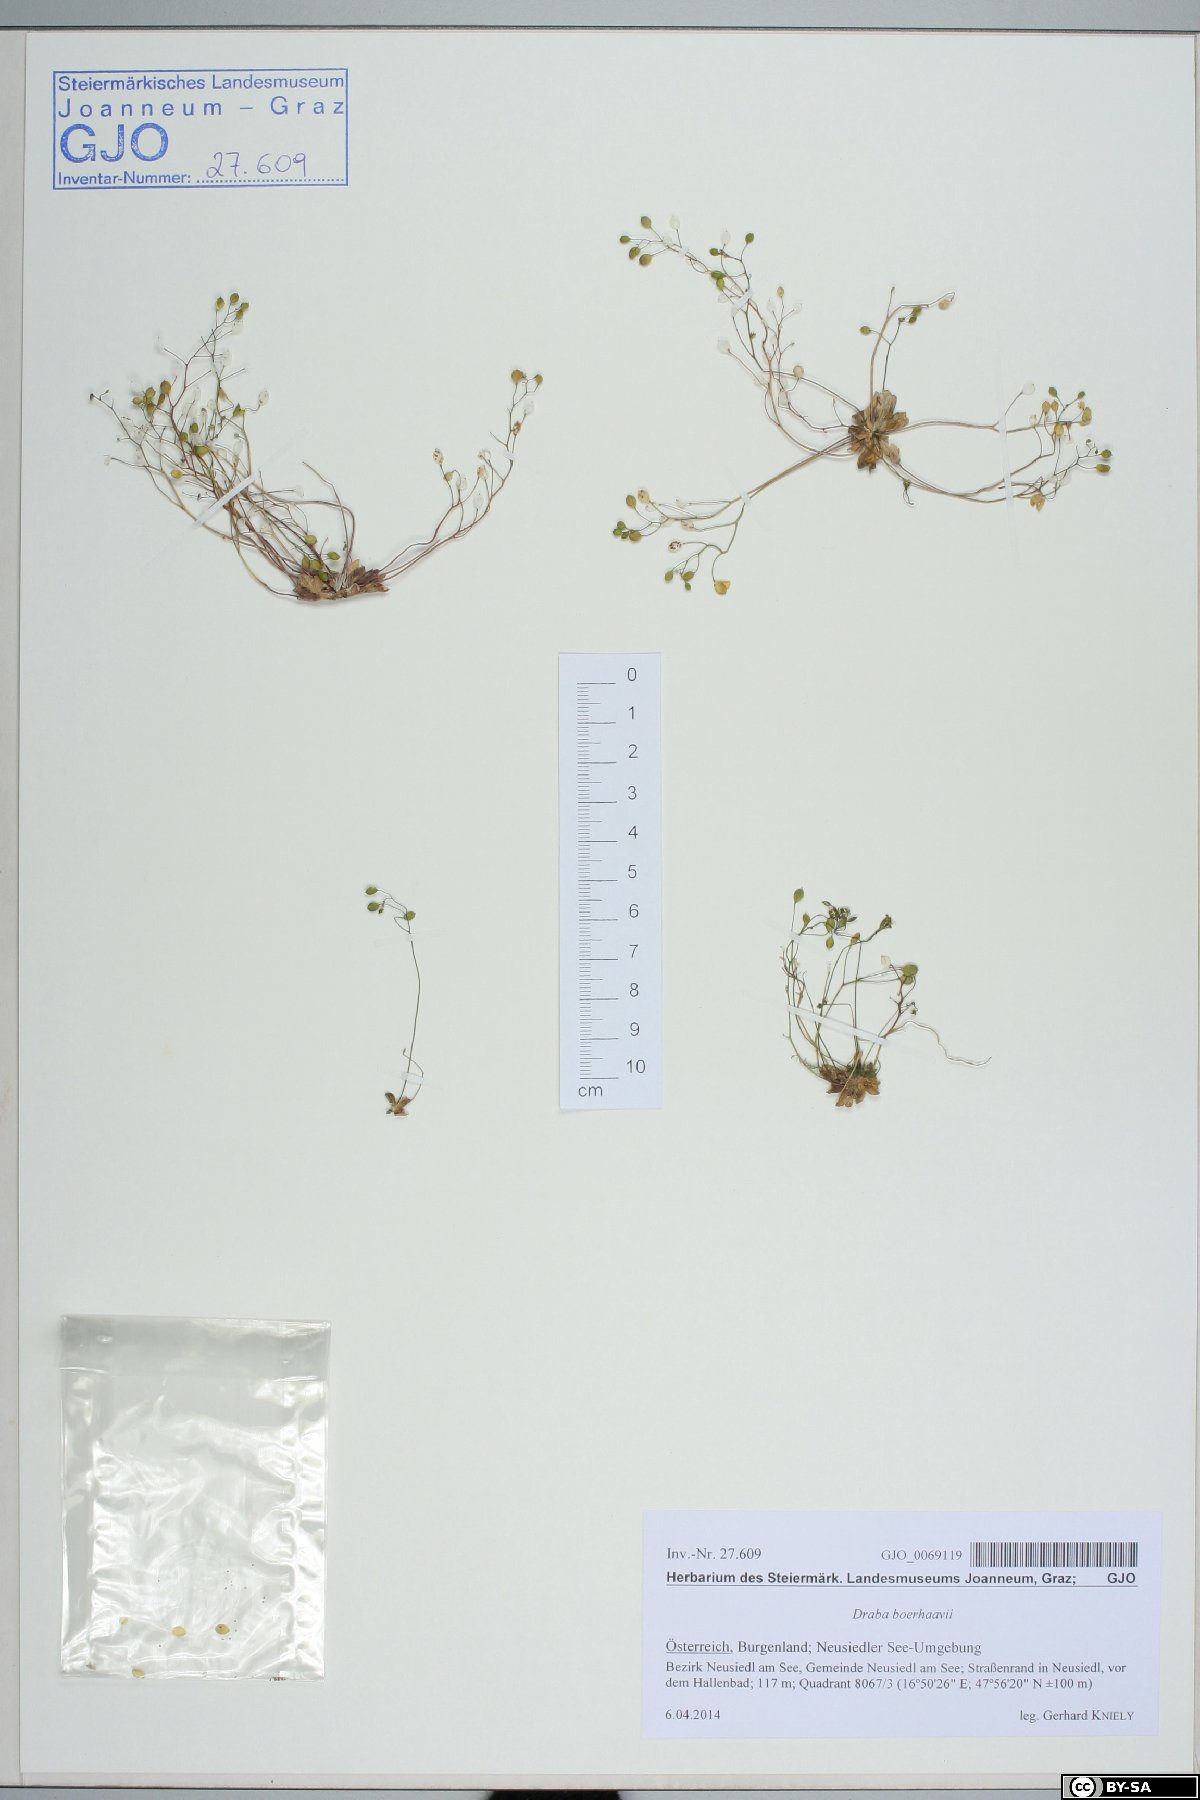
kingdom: Plantae
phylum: Tracheophyta
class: Magnoliopsida
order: Brassicales
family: Brassicaceae
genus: Draba
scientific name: Draba verna
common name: Spring draba
